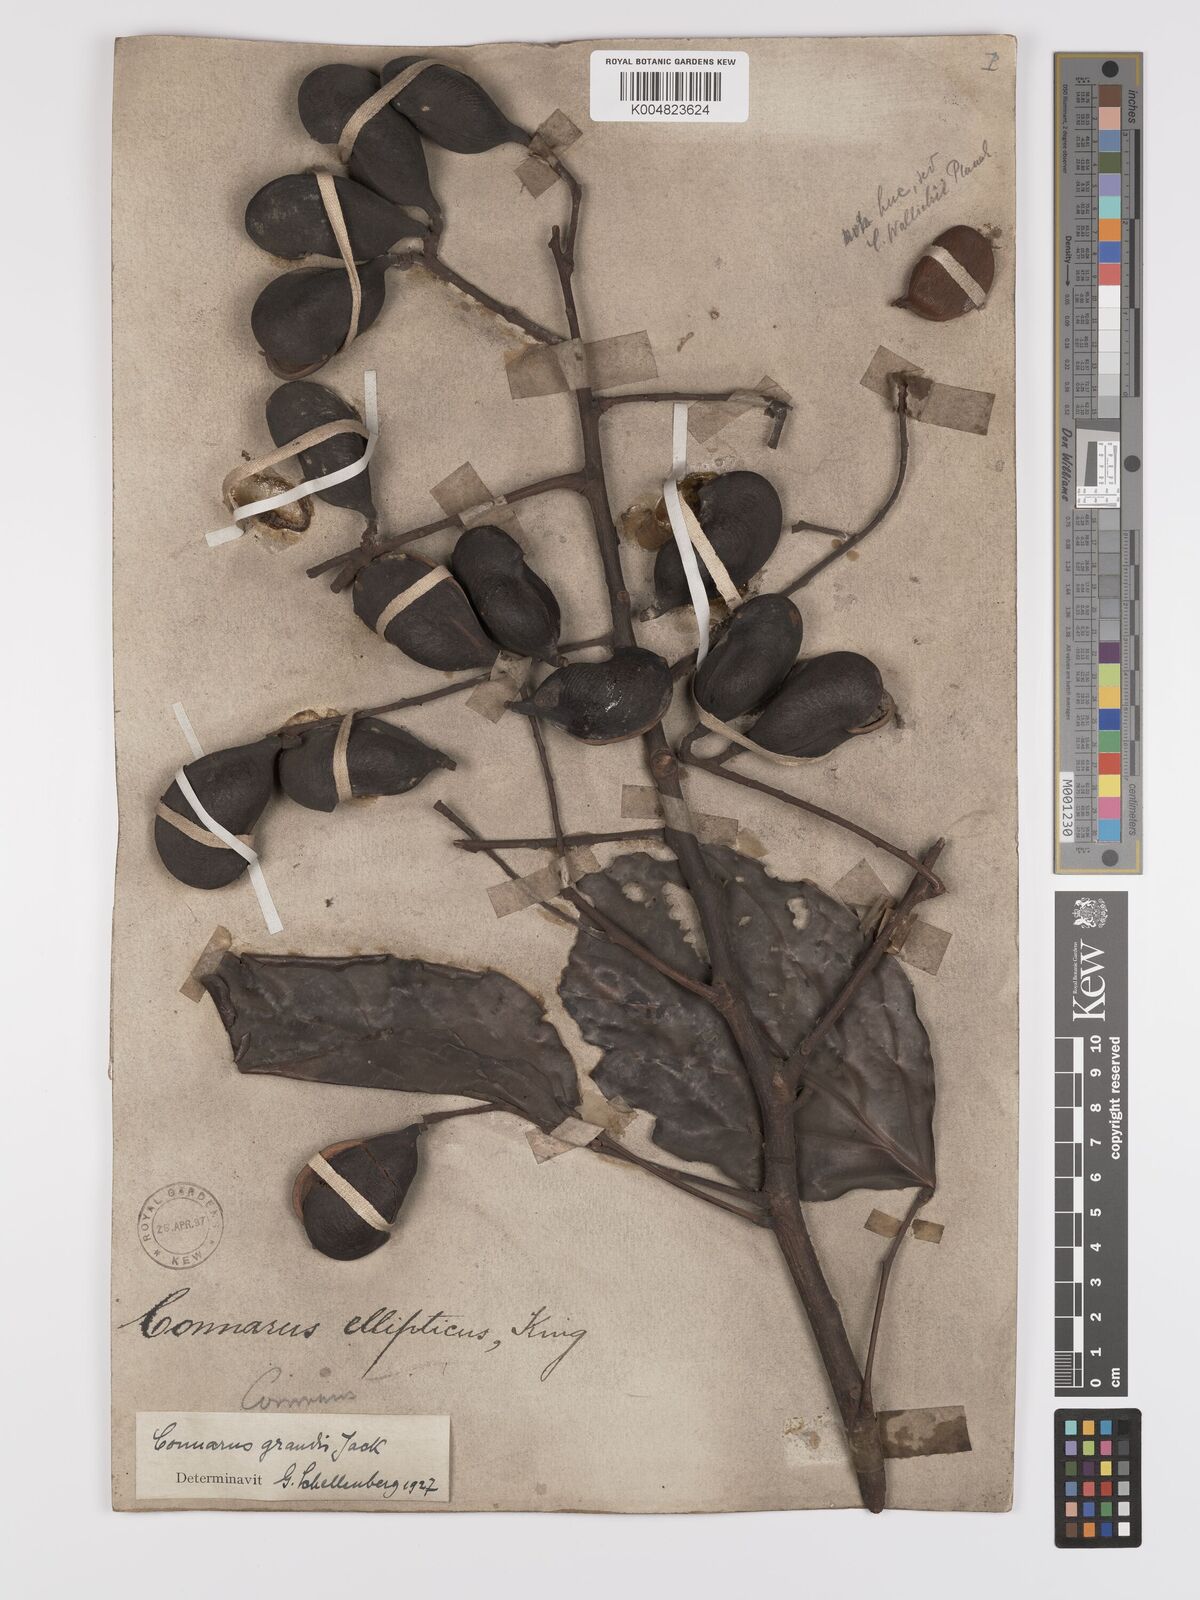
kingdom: Plantae
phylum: Tracheophyta
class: Magnoliopsida
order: Oxalidales
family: Connaraceae
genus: Connarus
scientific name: Connarus grandis
